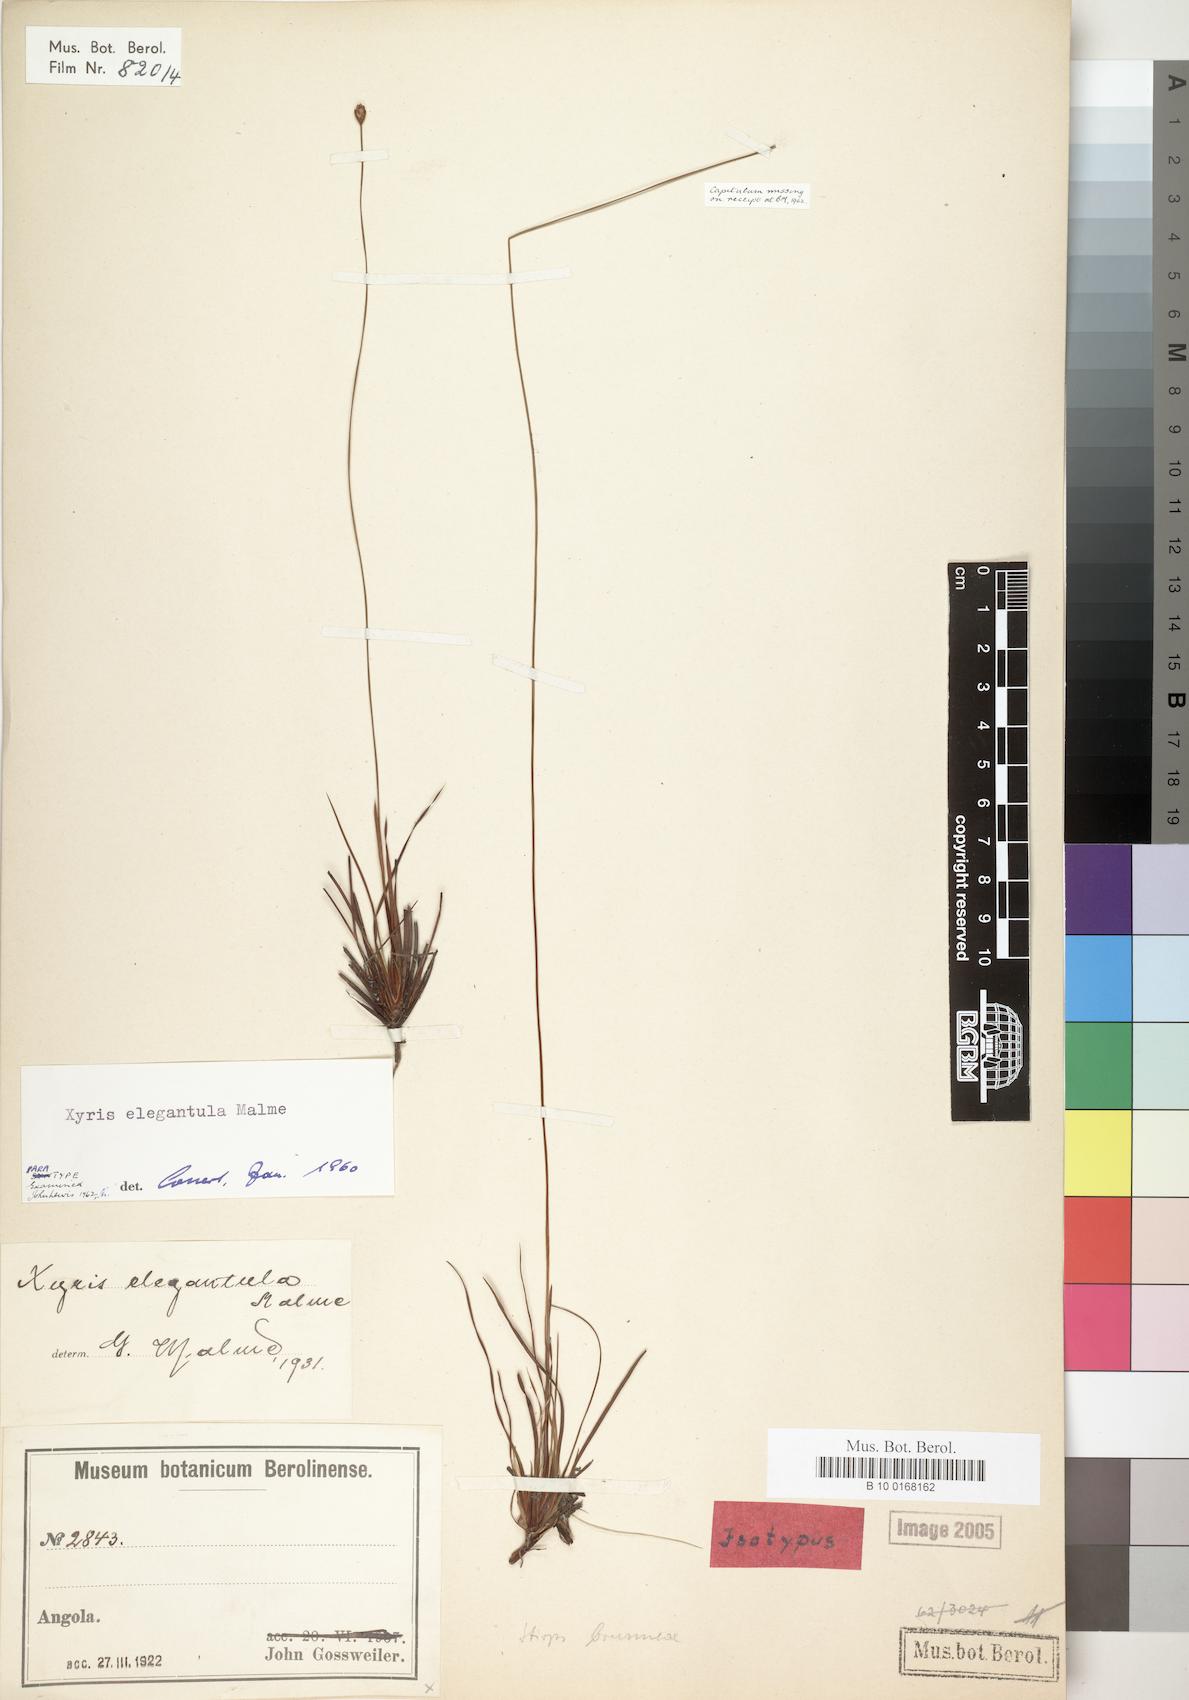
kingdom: Plantae
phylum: Tracheophyta
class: Liliopsida
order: Poales
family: Xyridaceae
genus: Xyris
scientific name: Xyris elegantula
